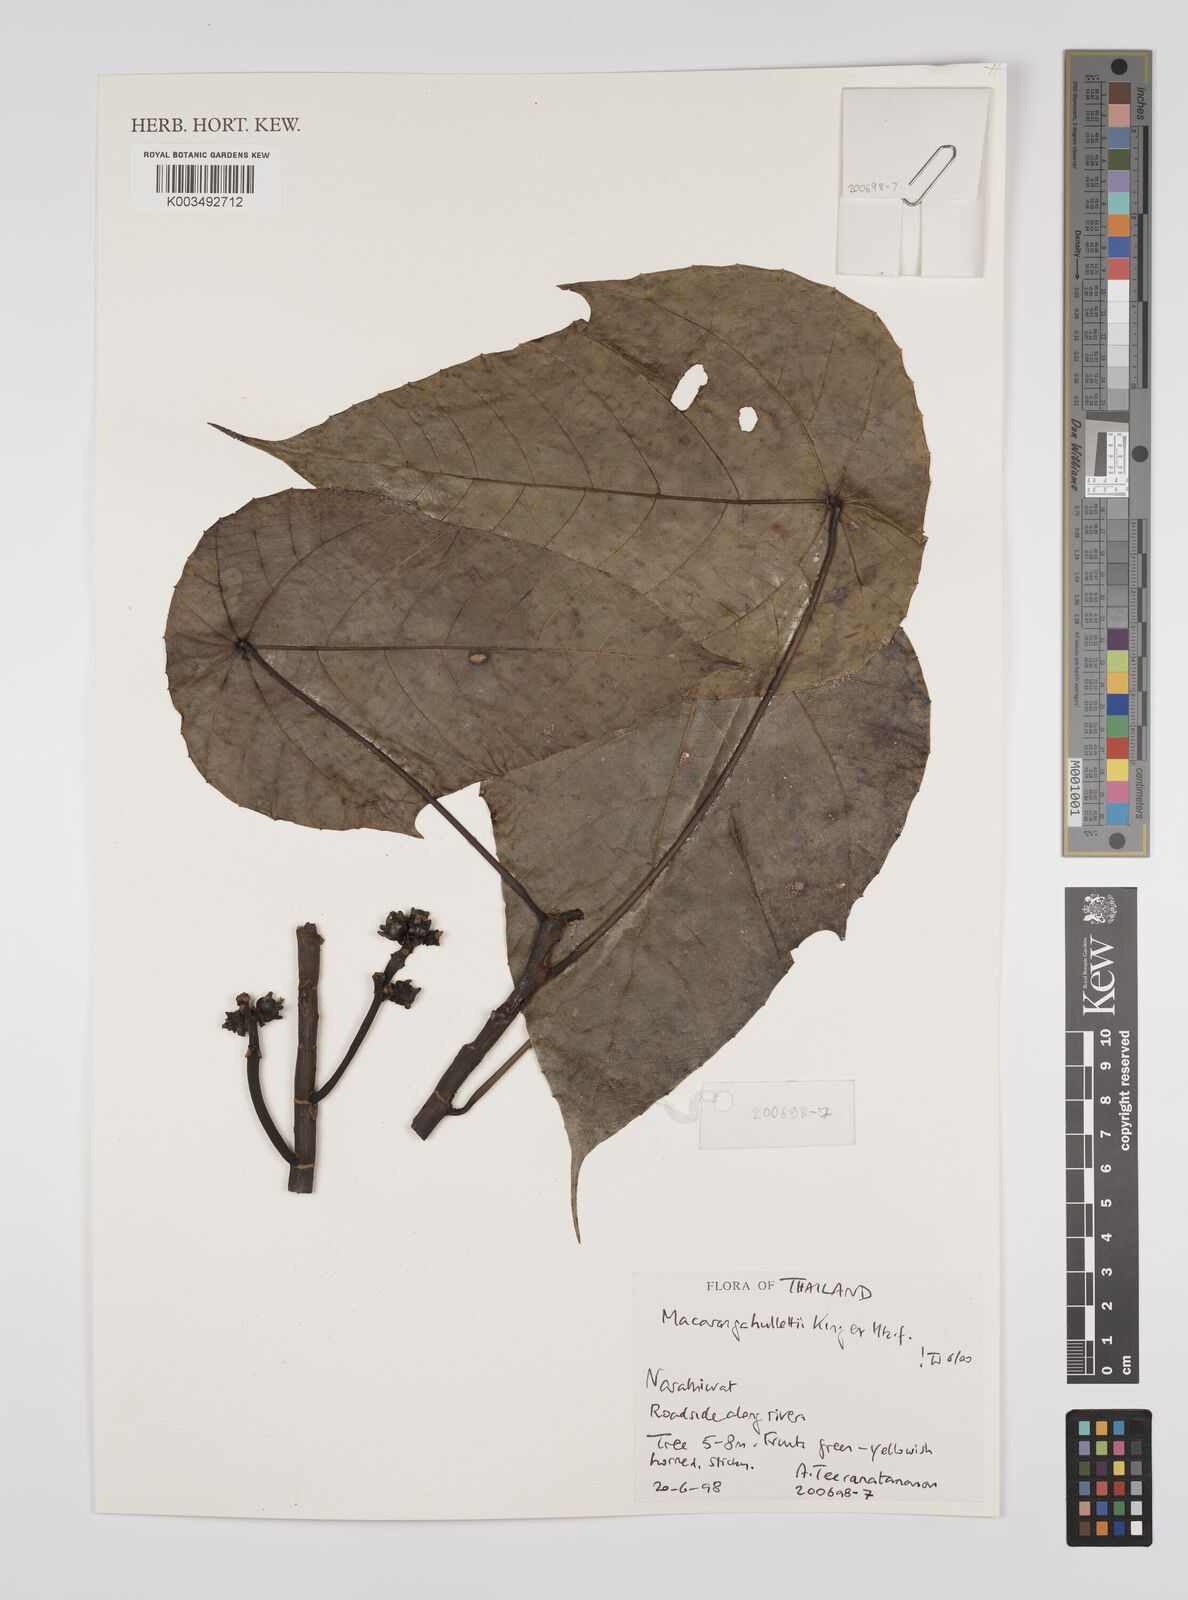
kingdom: Plantae
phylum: Tracheophyta
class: Magnoliopsida
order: Malpighiales
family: Euphorbiaceae
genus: Macaranga
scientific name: Macaranga hullettii
